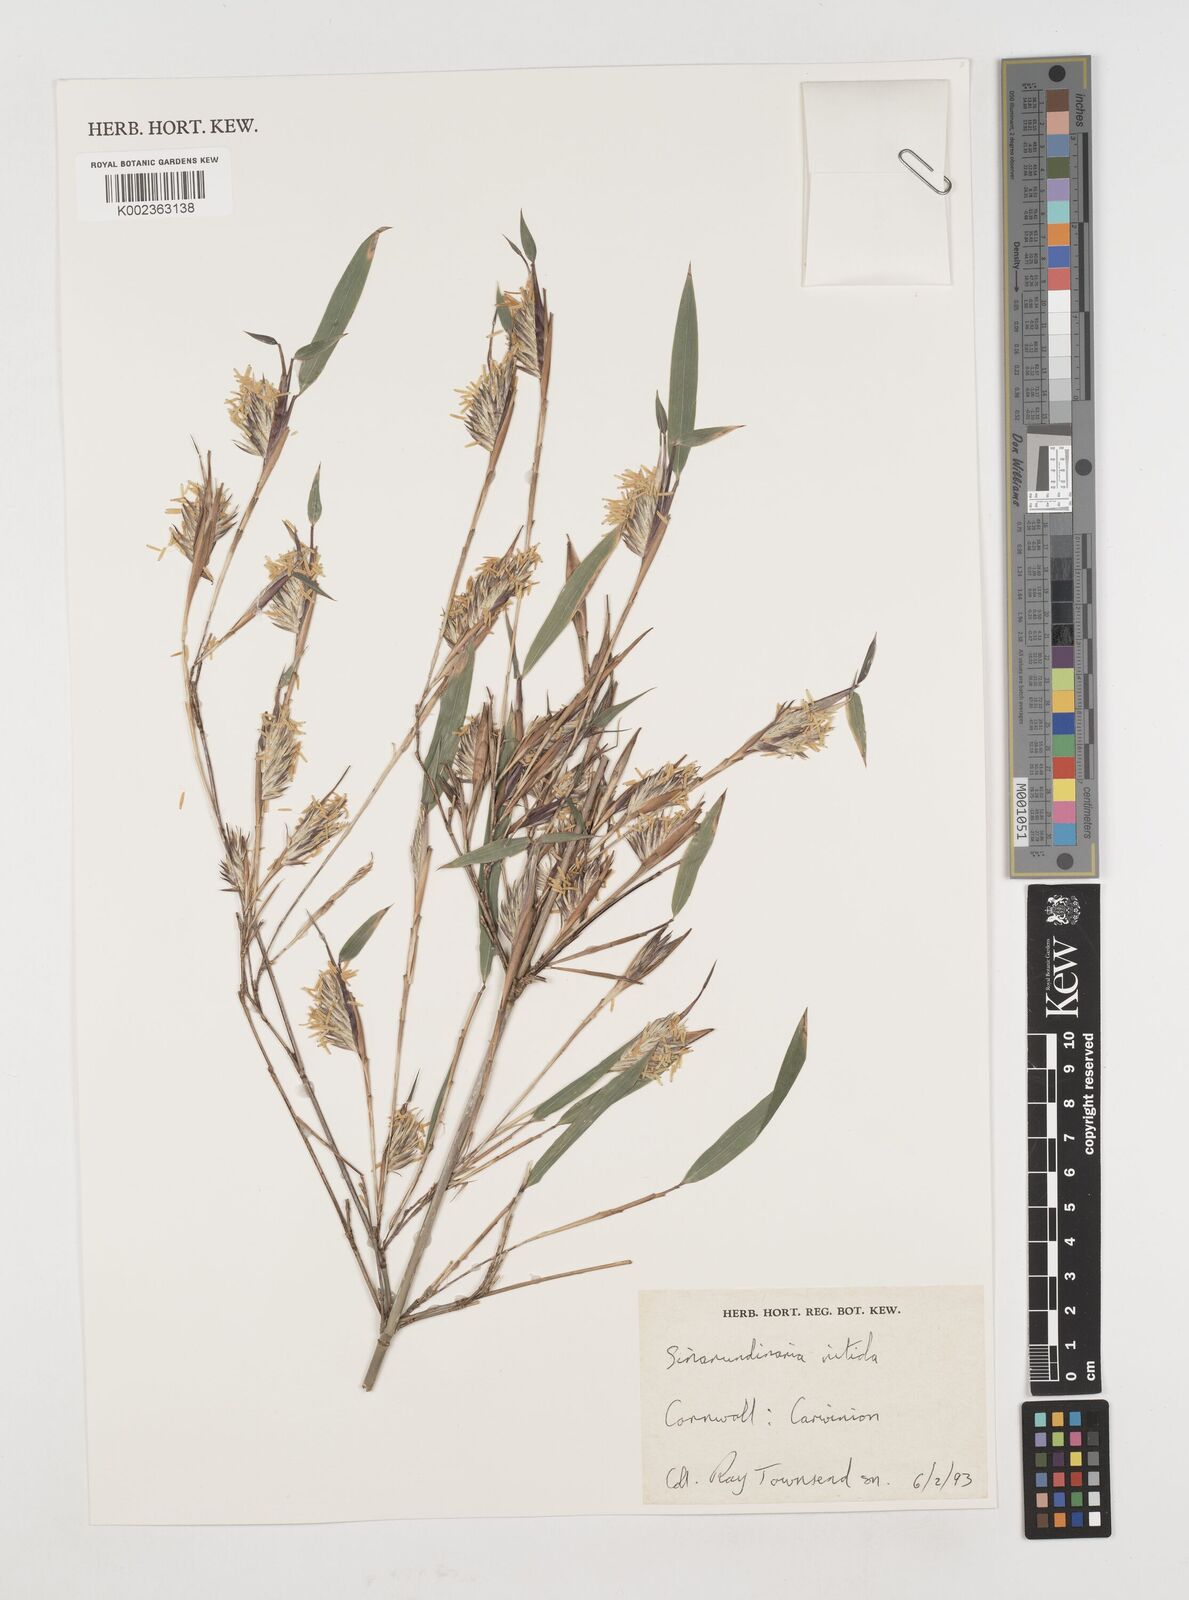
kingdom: Plantae
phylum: Tracheophyta
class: Liliopsida
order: Poales
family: Poaceae
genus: Fargesia
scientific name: Fargesia nitida ex
